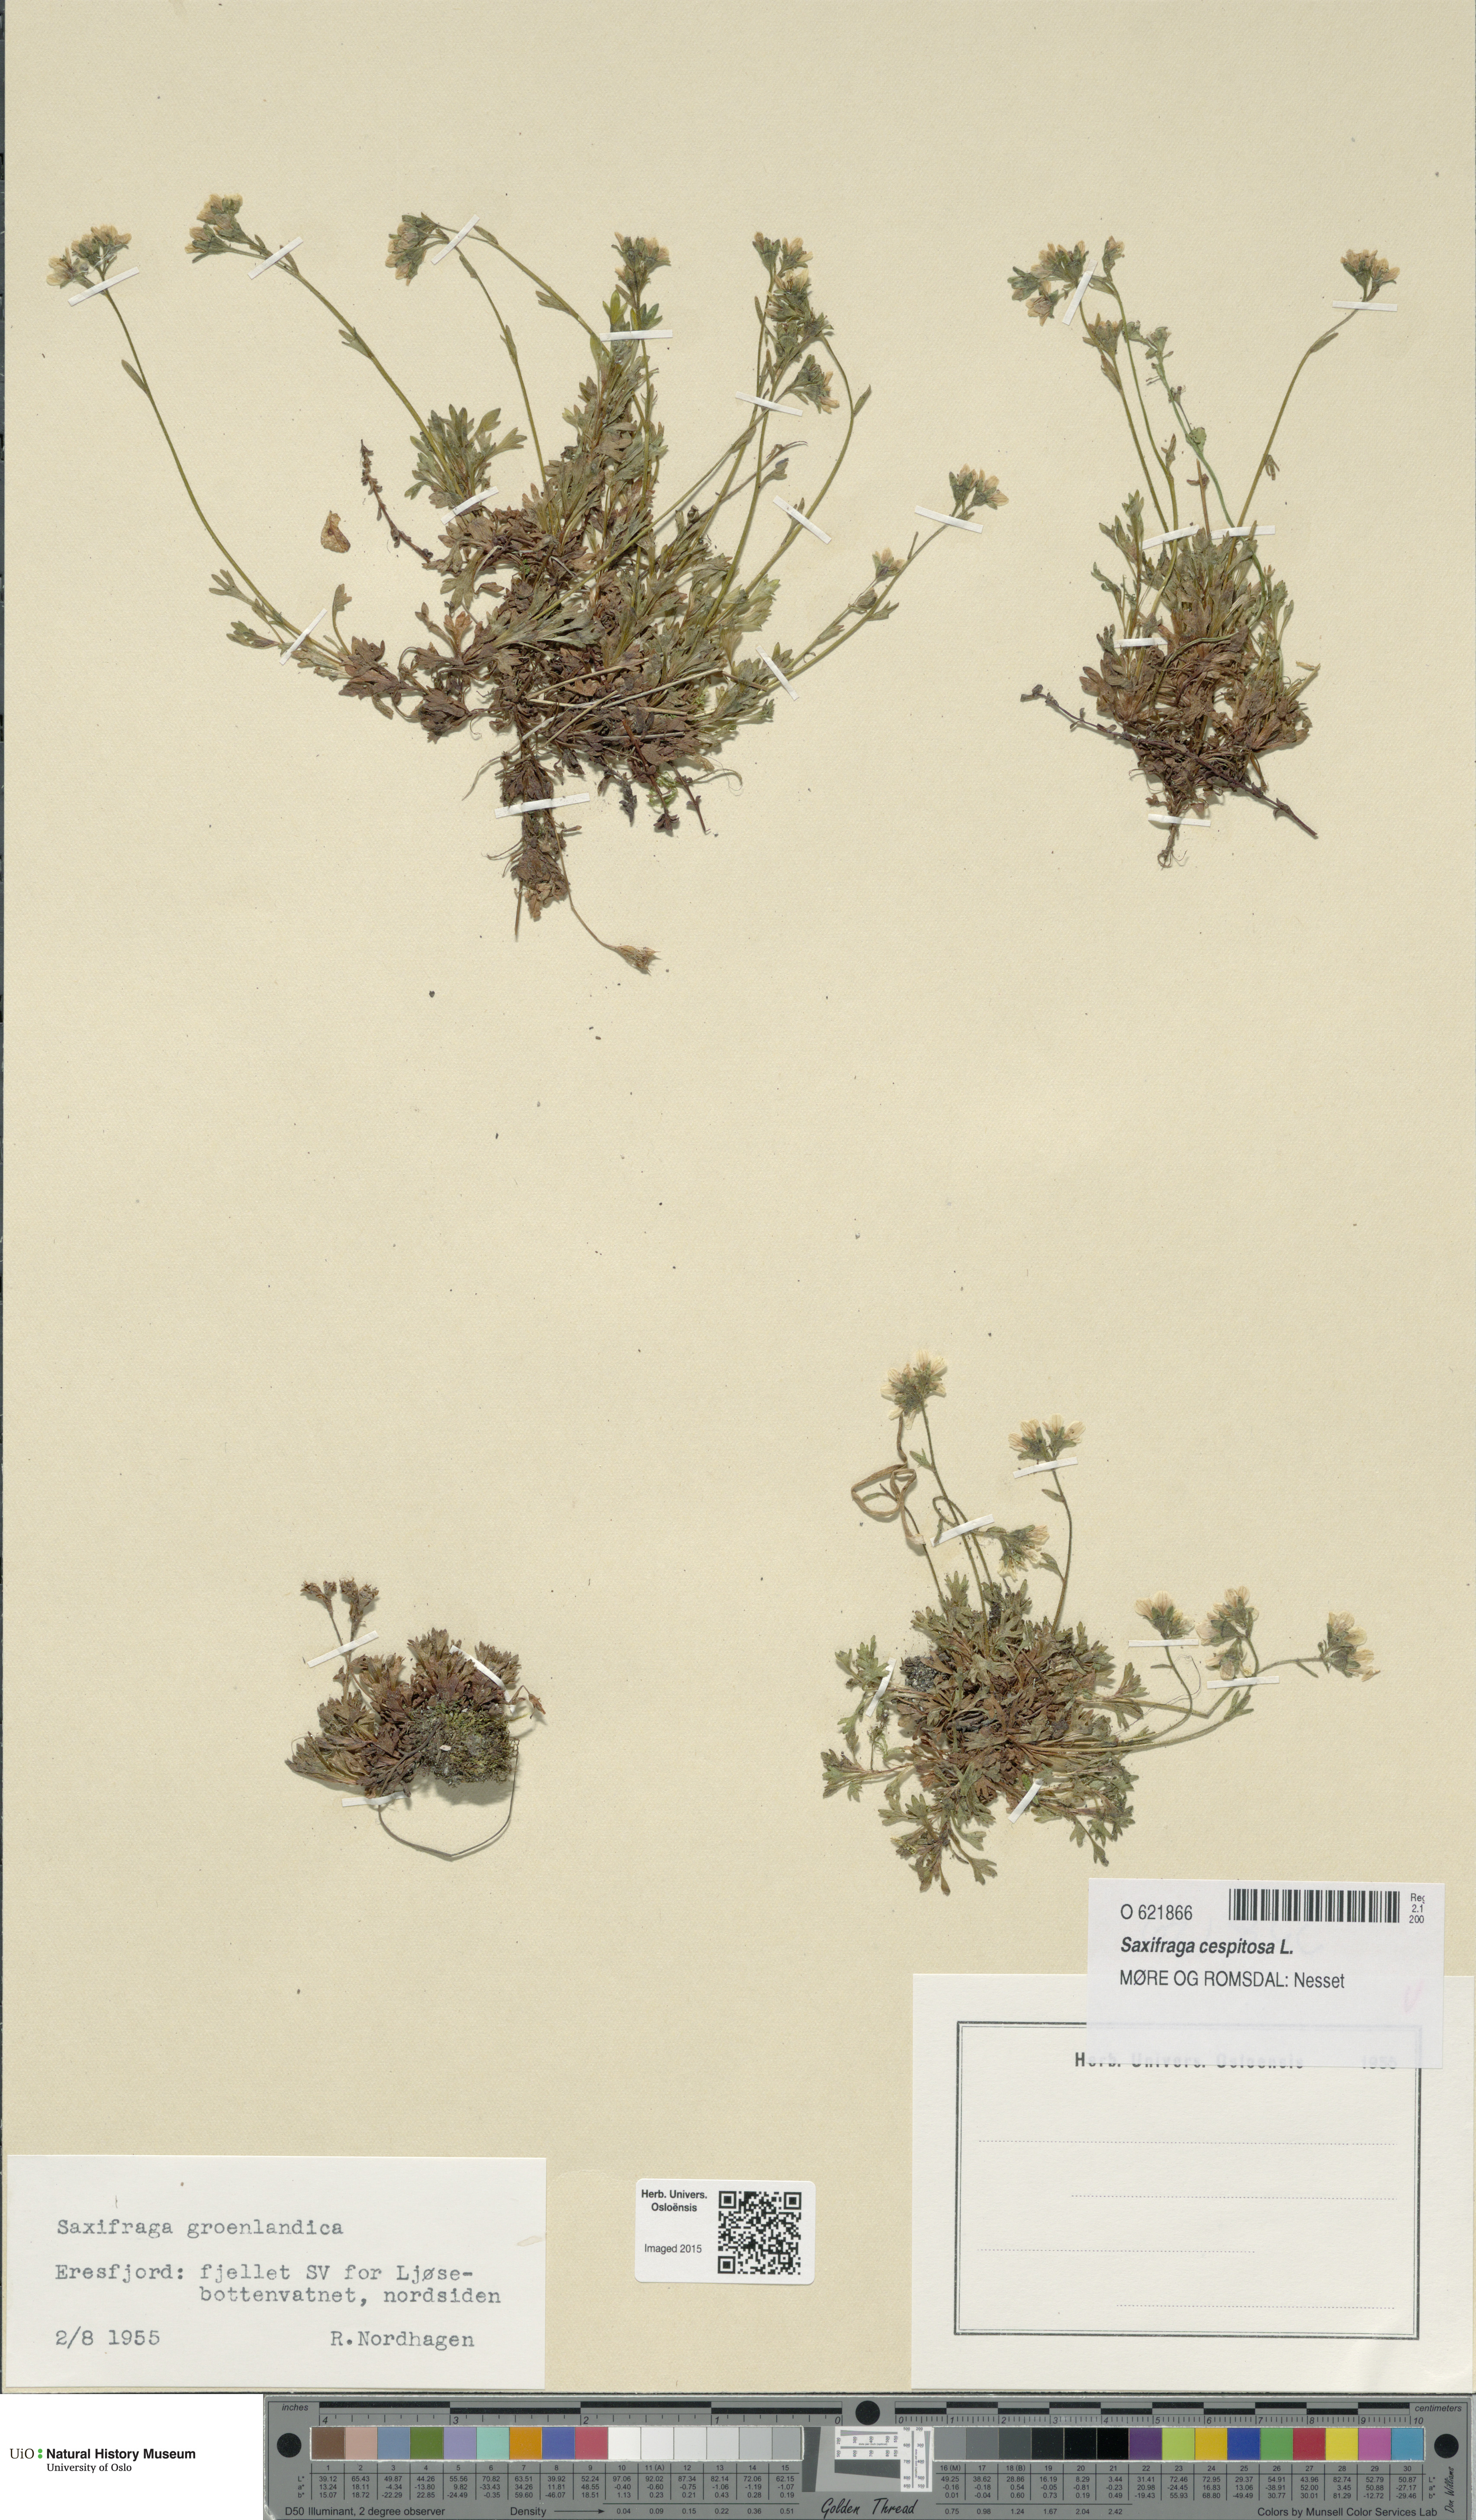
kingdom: Plantae
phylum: Tracheophyta
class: Magnoliopsida
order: Saxifragales
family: Saxifragaceae
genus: Saxifraga
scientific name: Saxifraga cespitosa
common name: Tufted saxifrage
